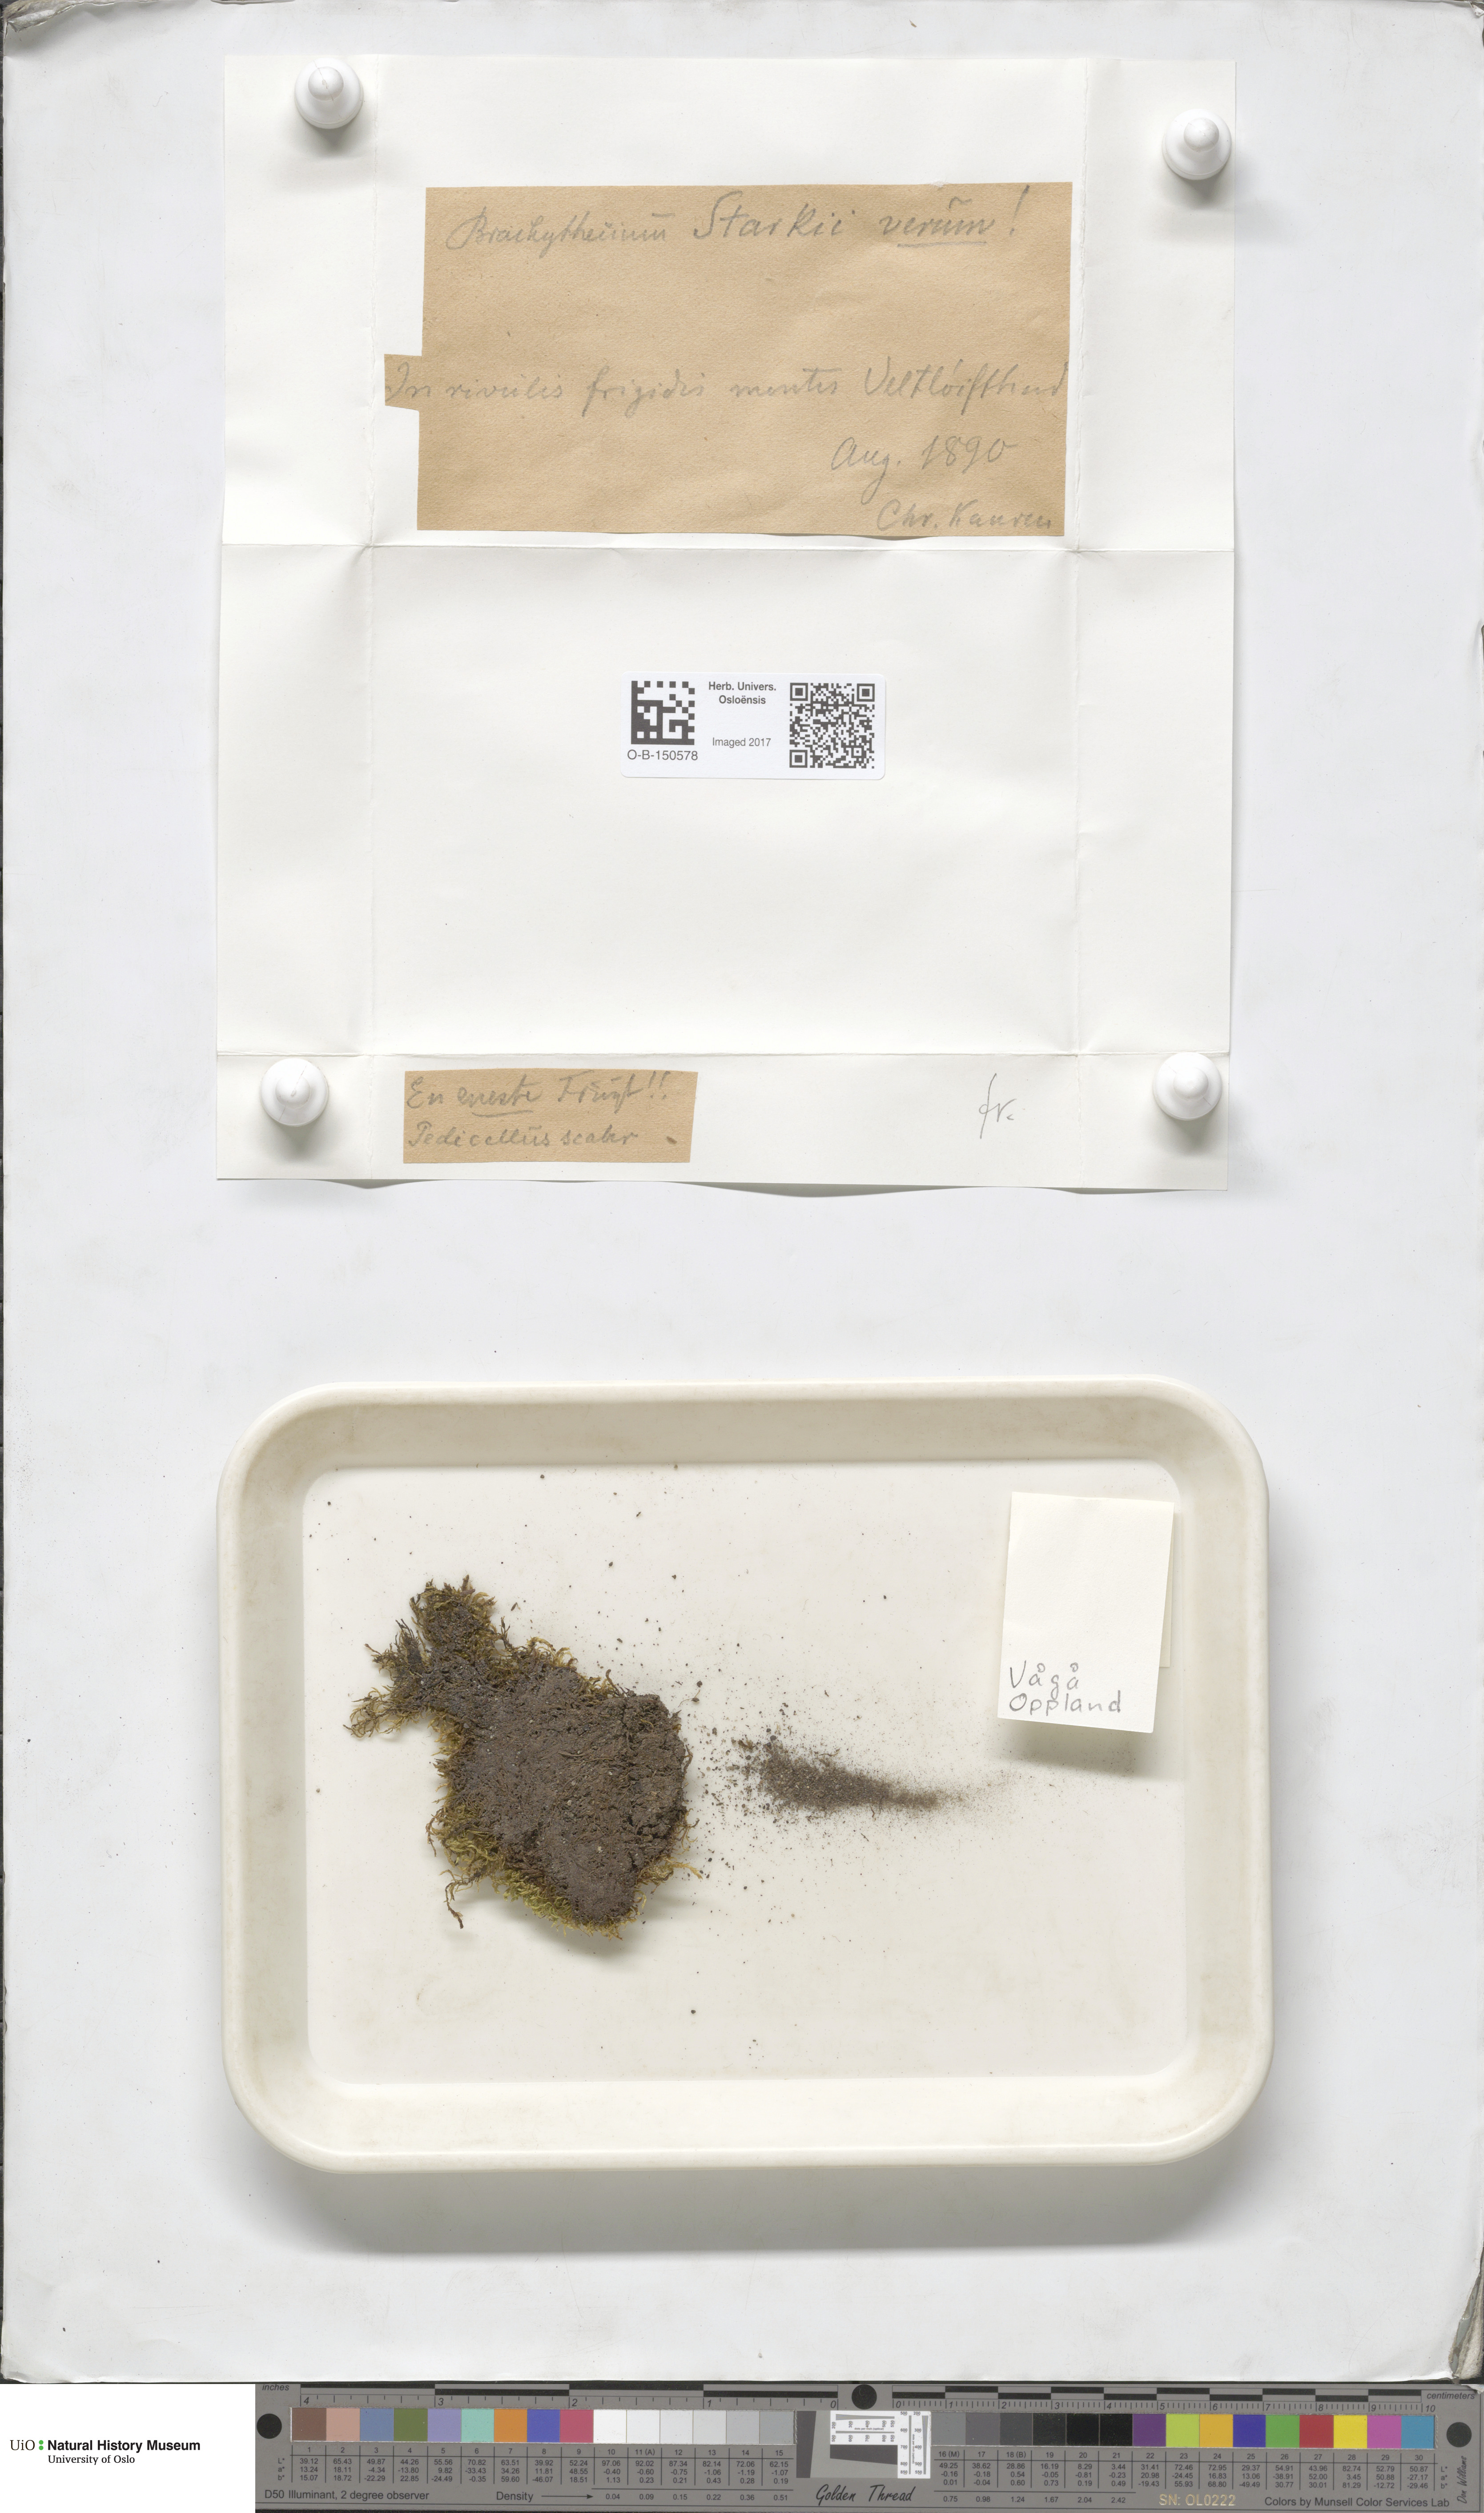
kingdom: Plantae
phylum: Bryophyta
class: Bryopsida
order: Hypnales
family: Brachytheciaceae
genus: Sciuro-hypnum
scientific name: Sciuro-hypnum starkei
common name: Starke's feather-moss
